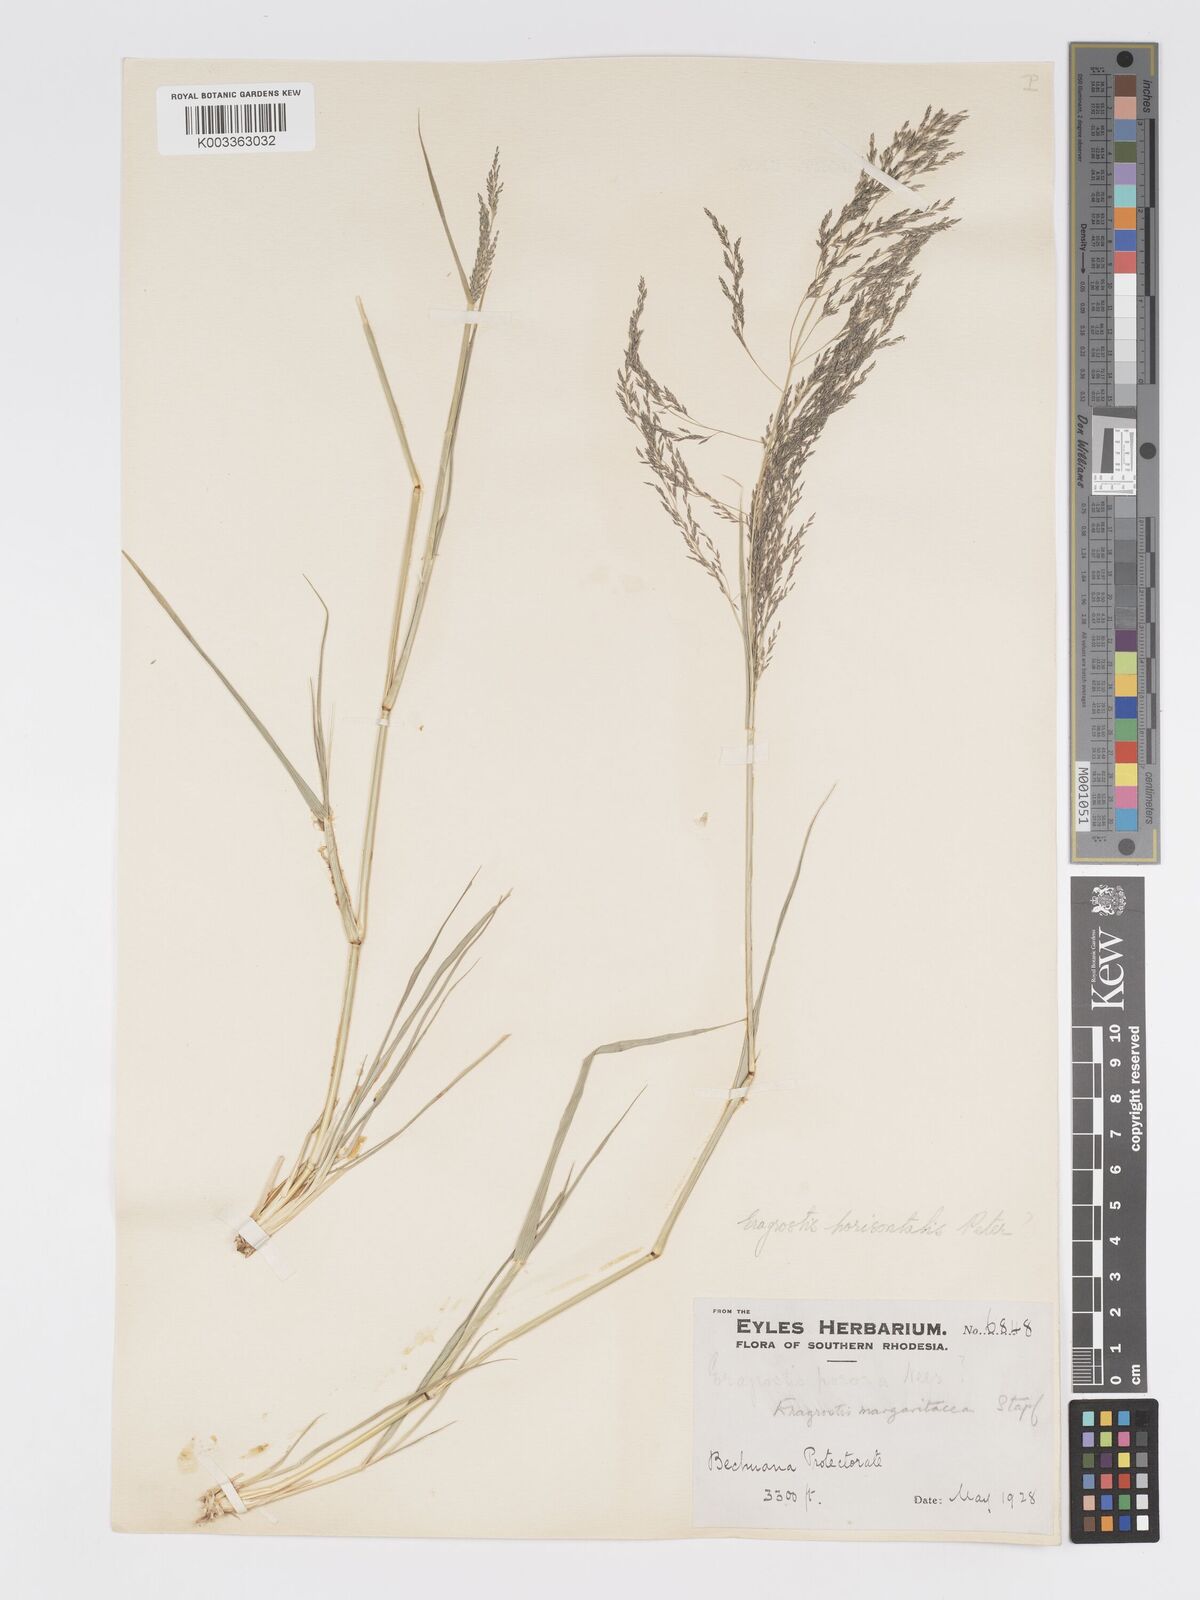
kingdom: Plantae
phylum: Tracheophyta
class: Liliopsida
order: Poales
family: Poaceae
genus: Eragrostis
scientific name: Eragrostis cylindriflora
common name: Cylinderflower lovegrass
